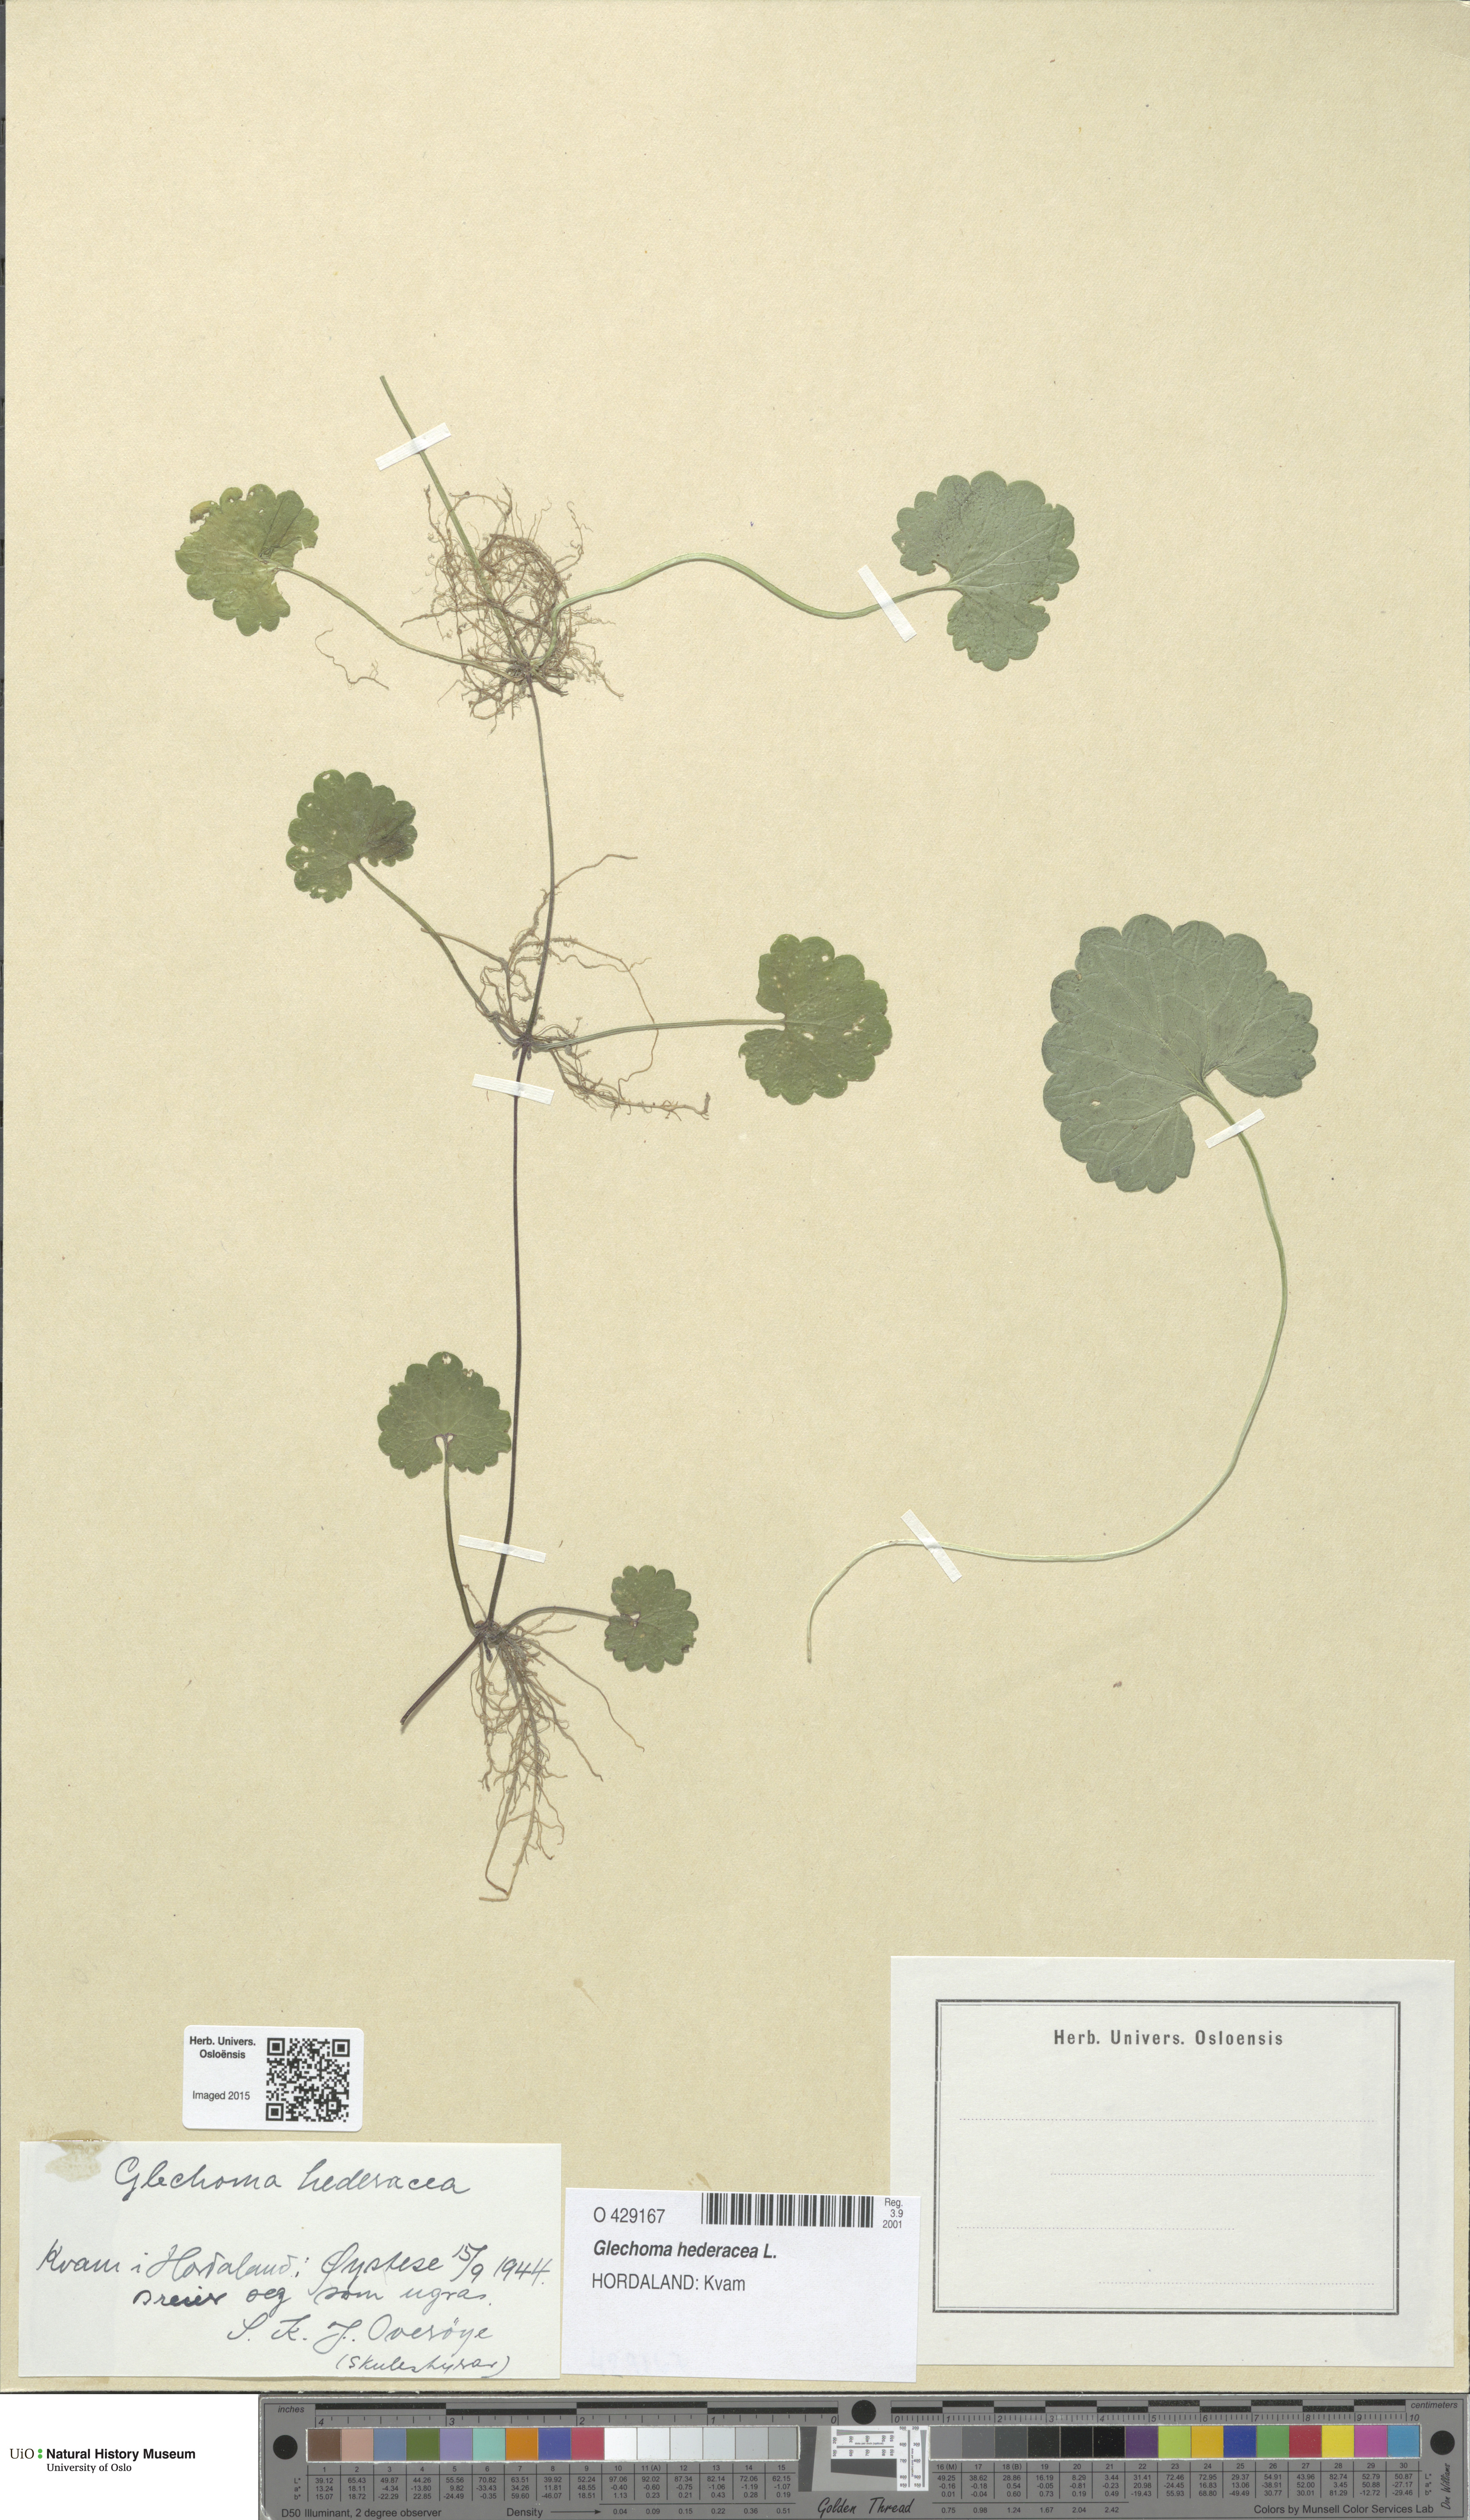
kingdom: Plantae
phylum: Tracheophyta
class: Magnoliopsida
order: Lamiales
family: Lamiaceae
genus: Glechoma
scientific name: Glechoma hederacea
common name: Ground ivy
